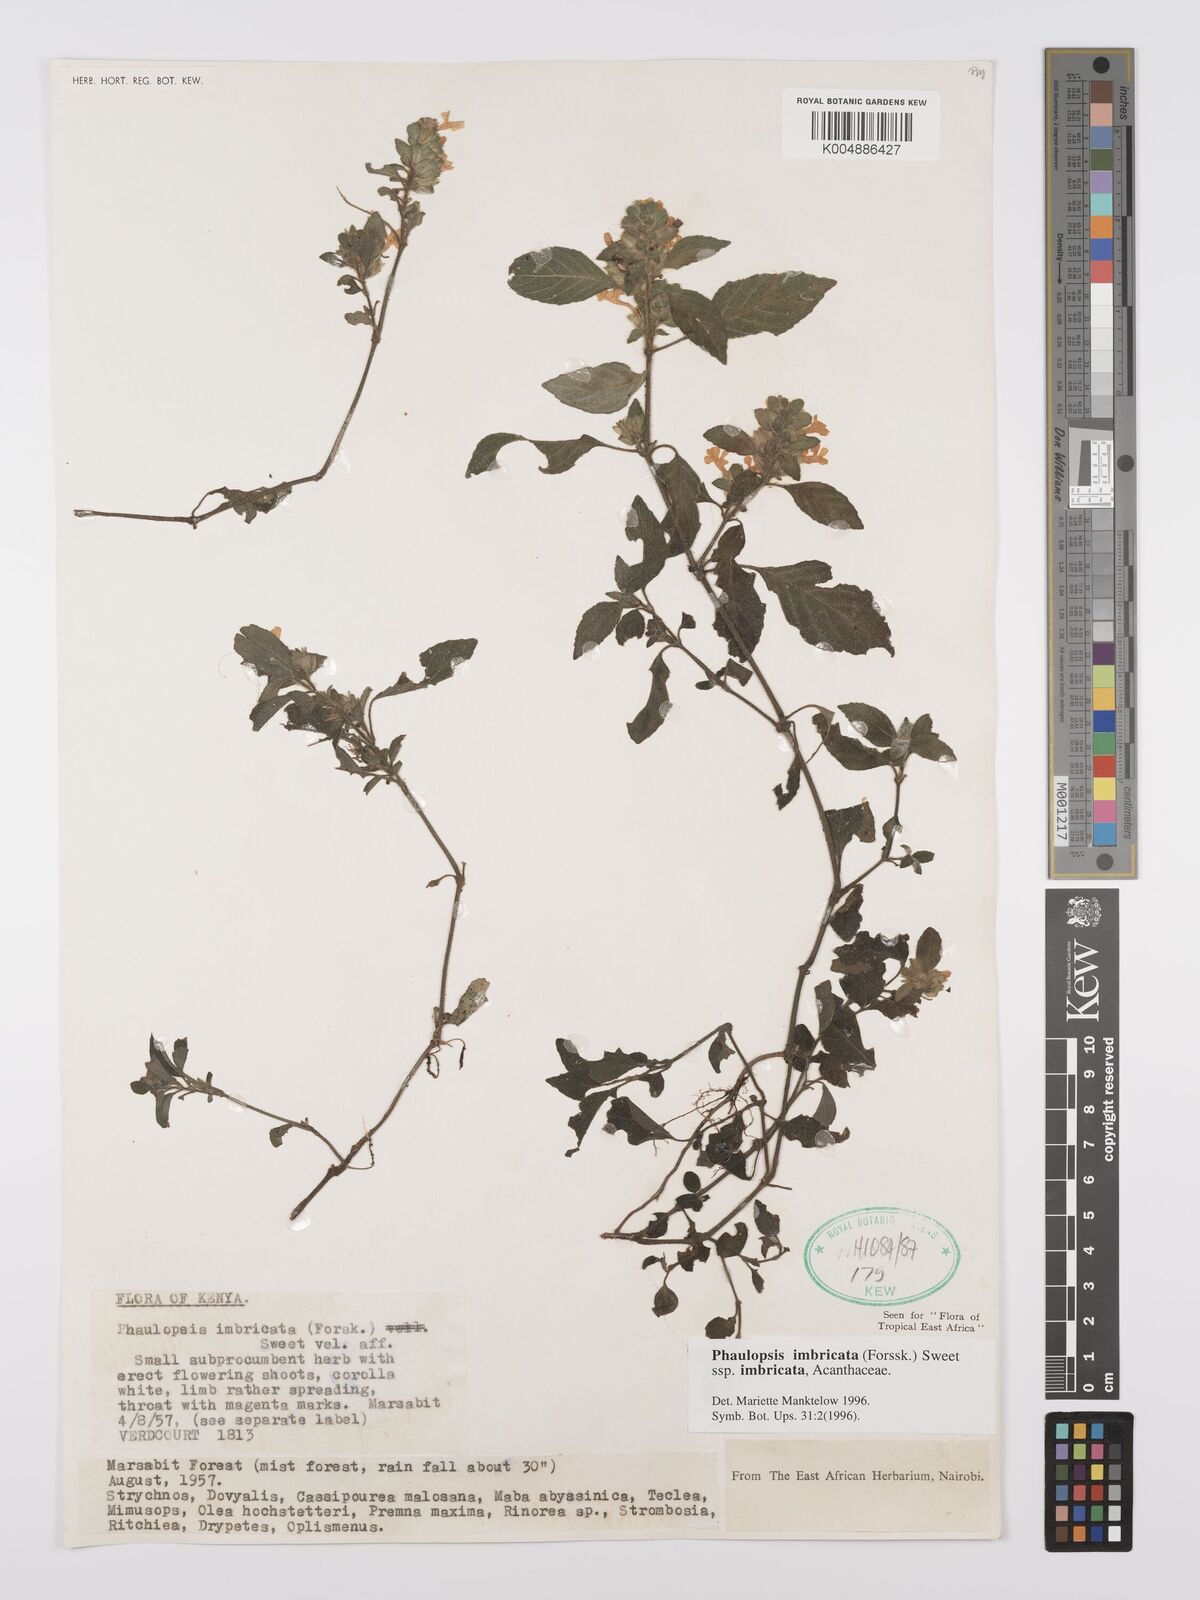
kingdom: Plantae
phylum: Tracheophyta
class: Magnoliopsida
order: Lamiales
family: Acanthaceae
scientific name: Acanthaceae
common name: Acanthaceae
